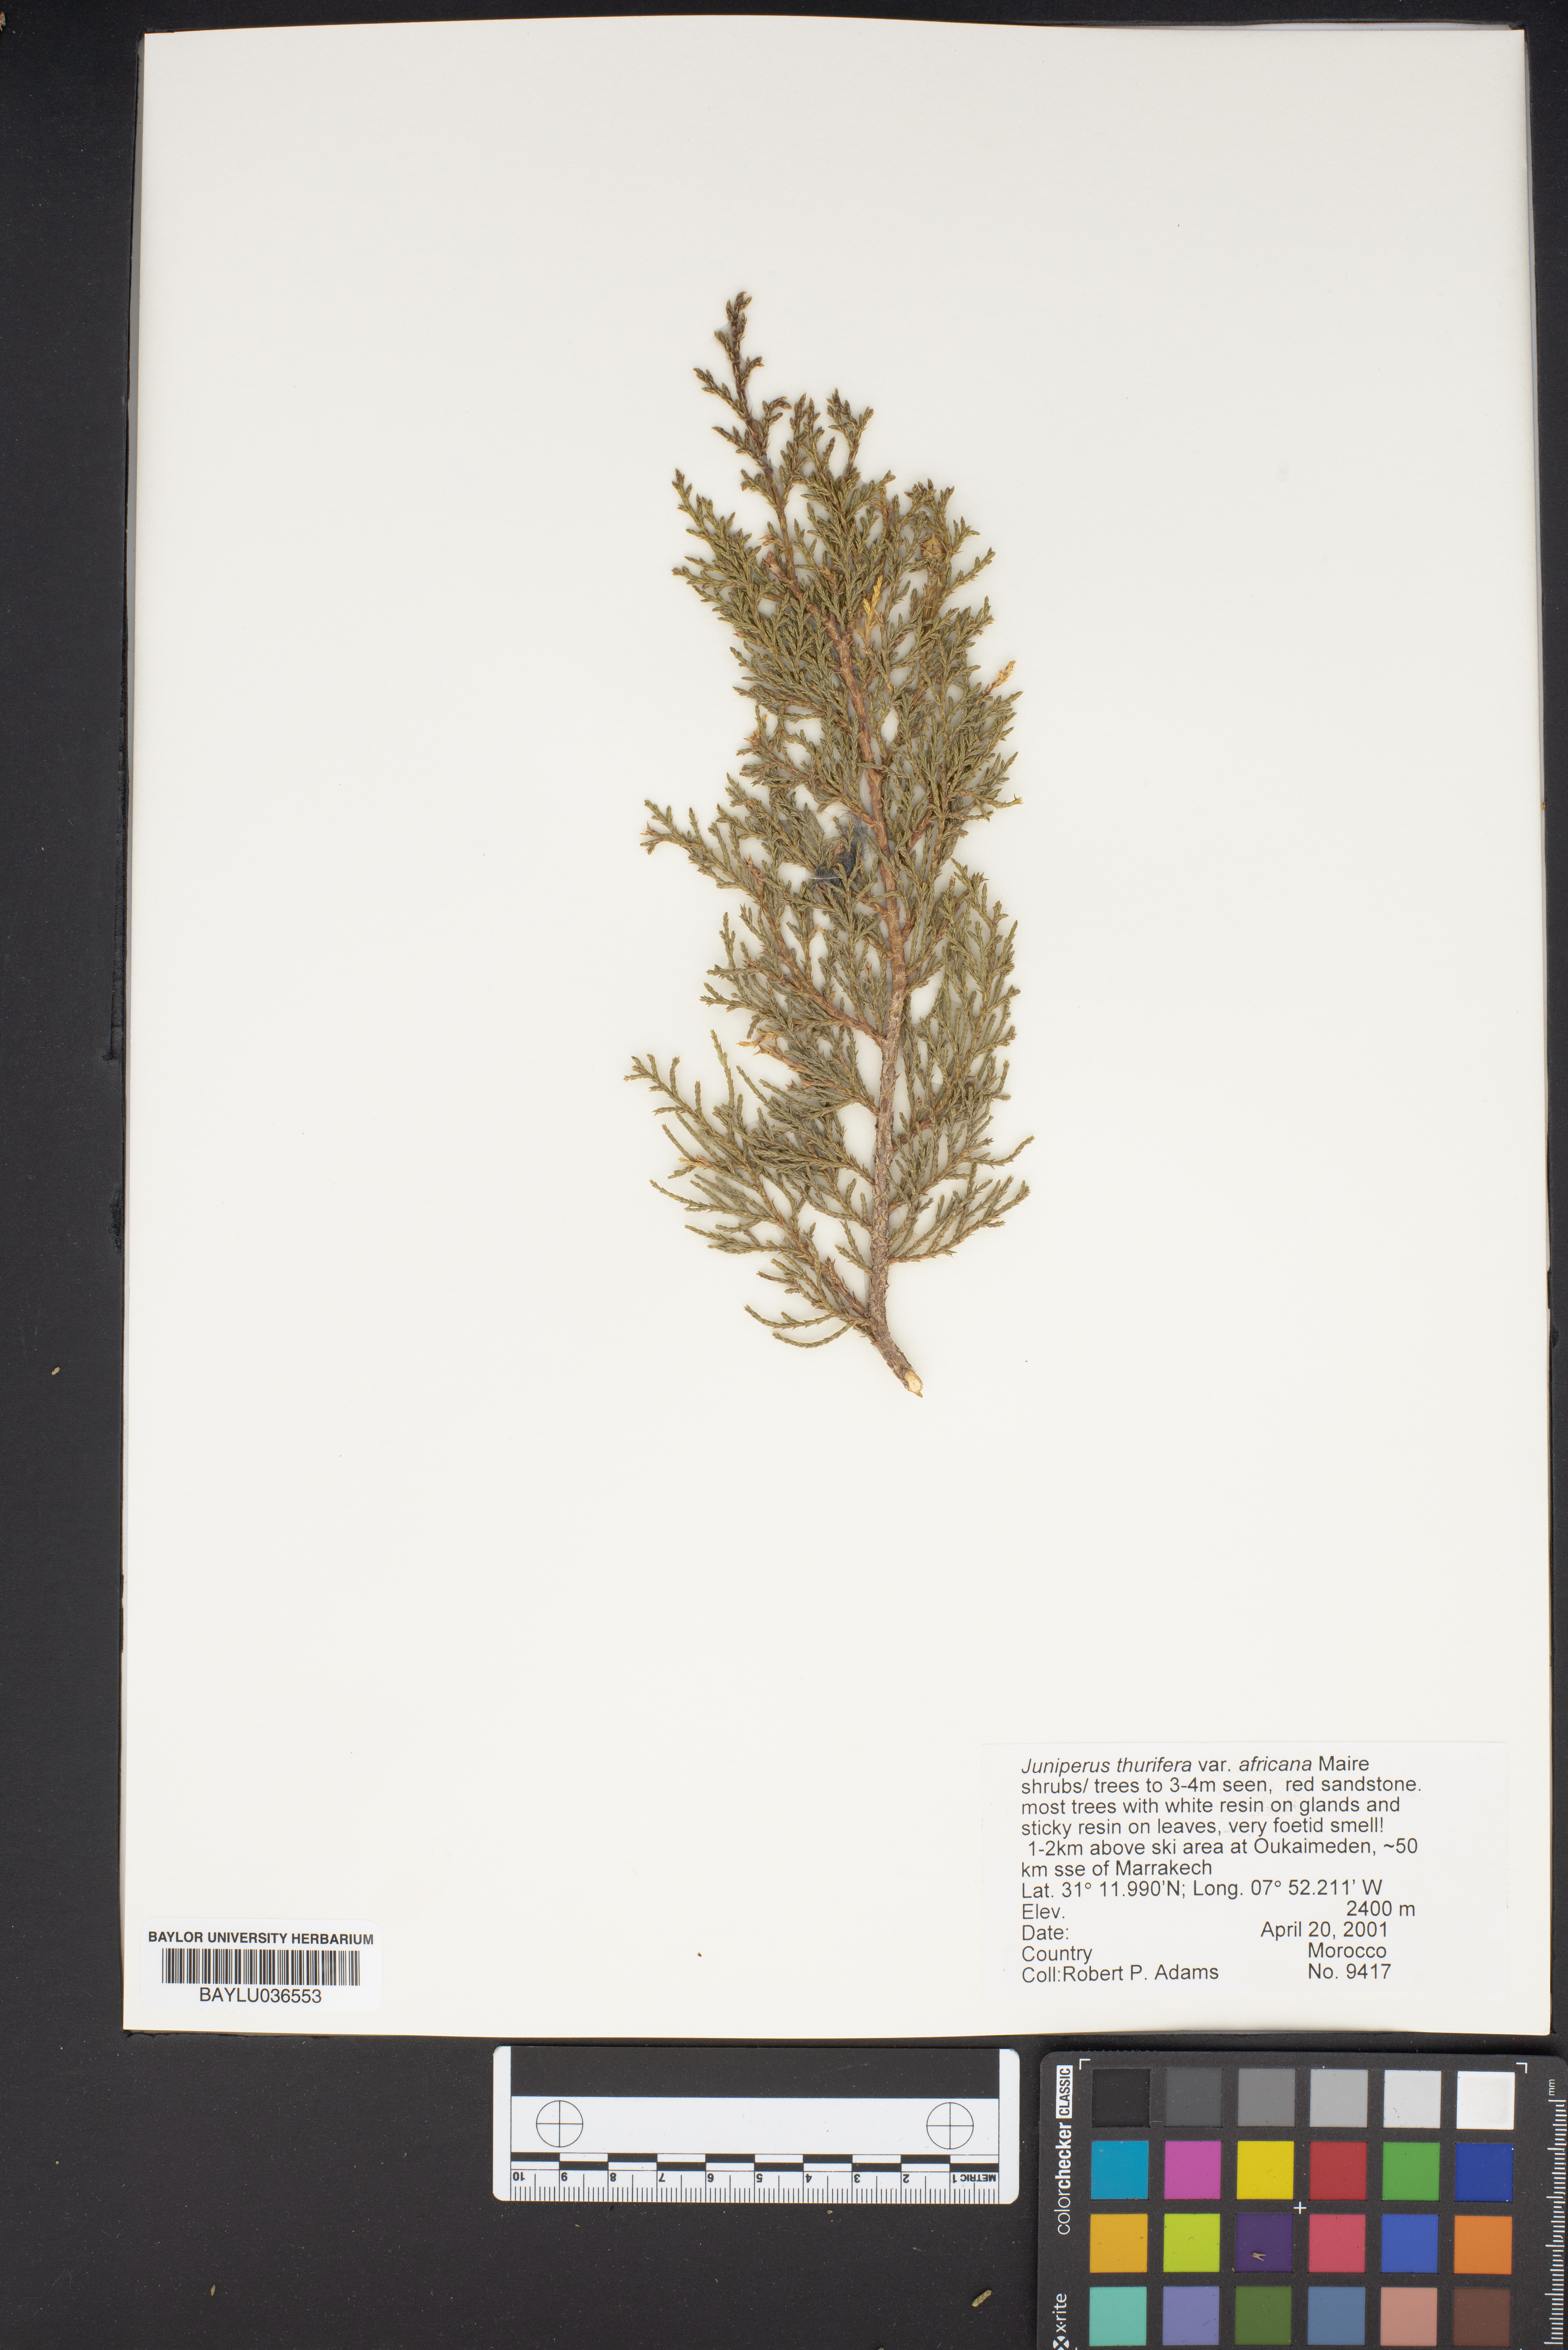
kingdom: Plantae
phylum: Tracheophyta
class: Pinopsida
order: Pinales
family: Cupressaceae
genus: Juniperus
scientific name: Juniperus thurifera
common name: Incense juniper
